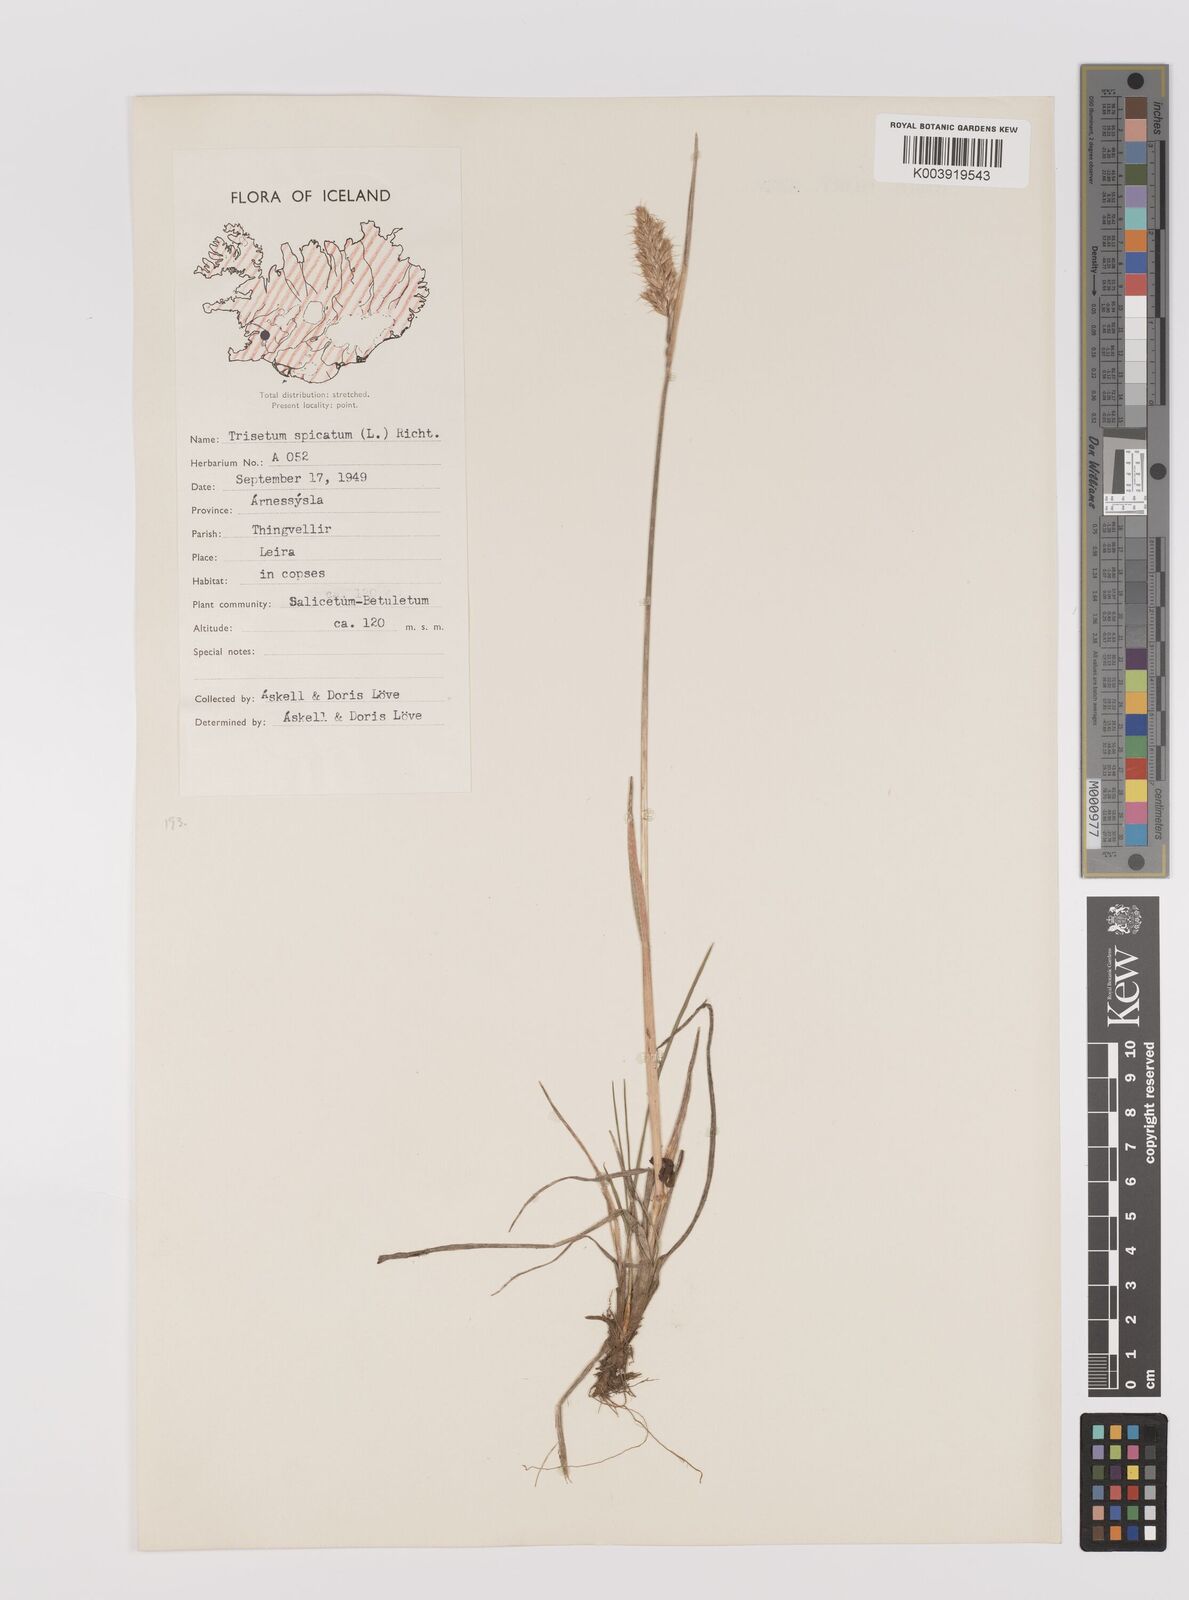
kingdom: Plantae
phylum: Tracheophyta
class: Liliopsida
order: Poales
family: Poaceae
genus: Koeleria
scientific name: Koeleria spicata
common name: Mountain trisetum
